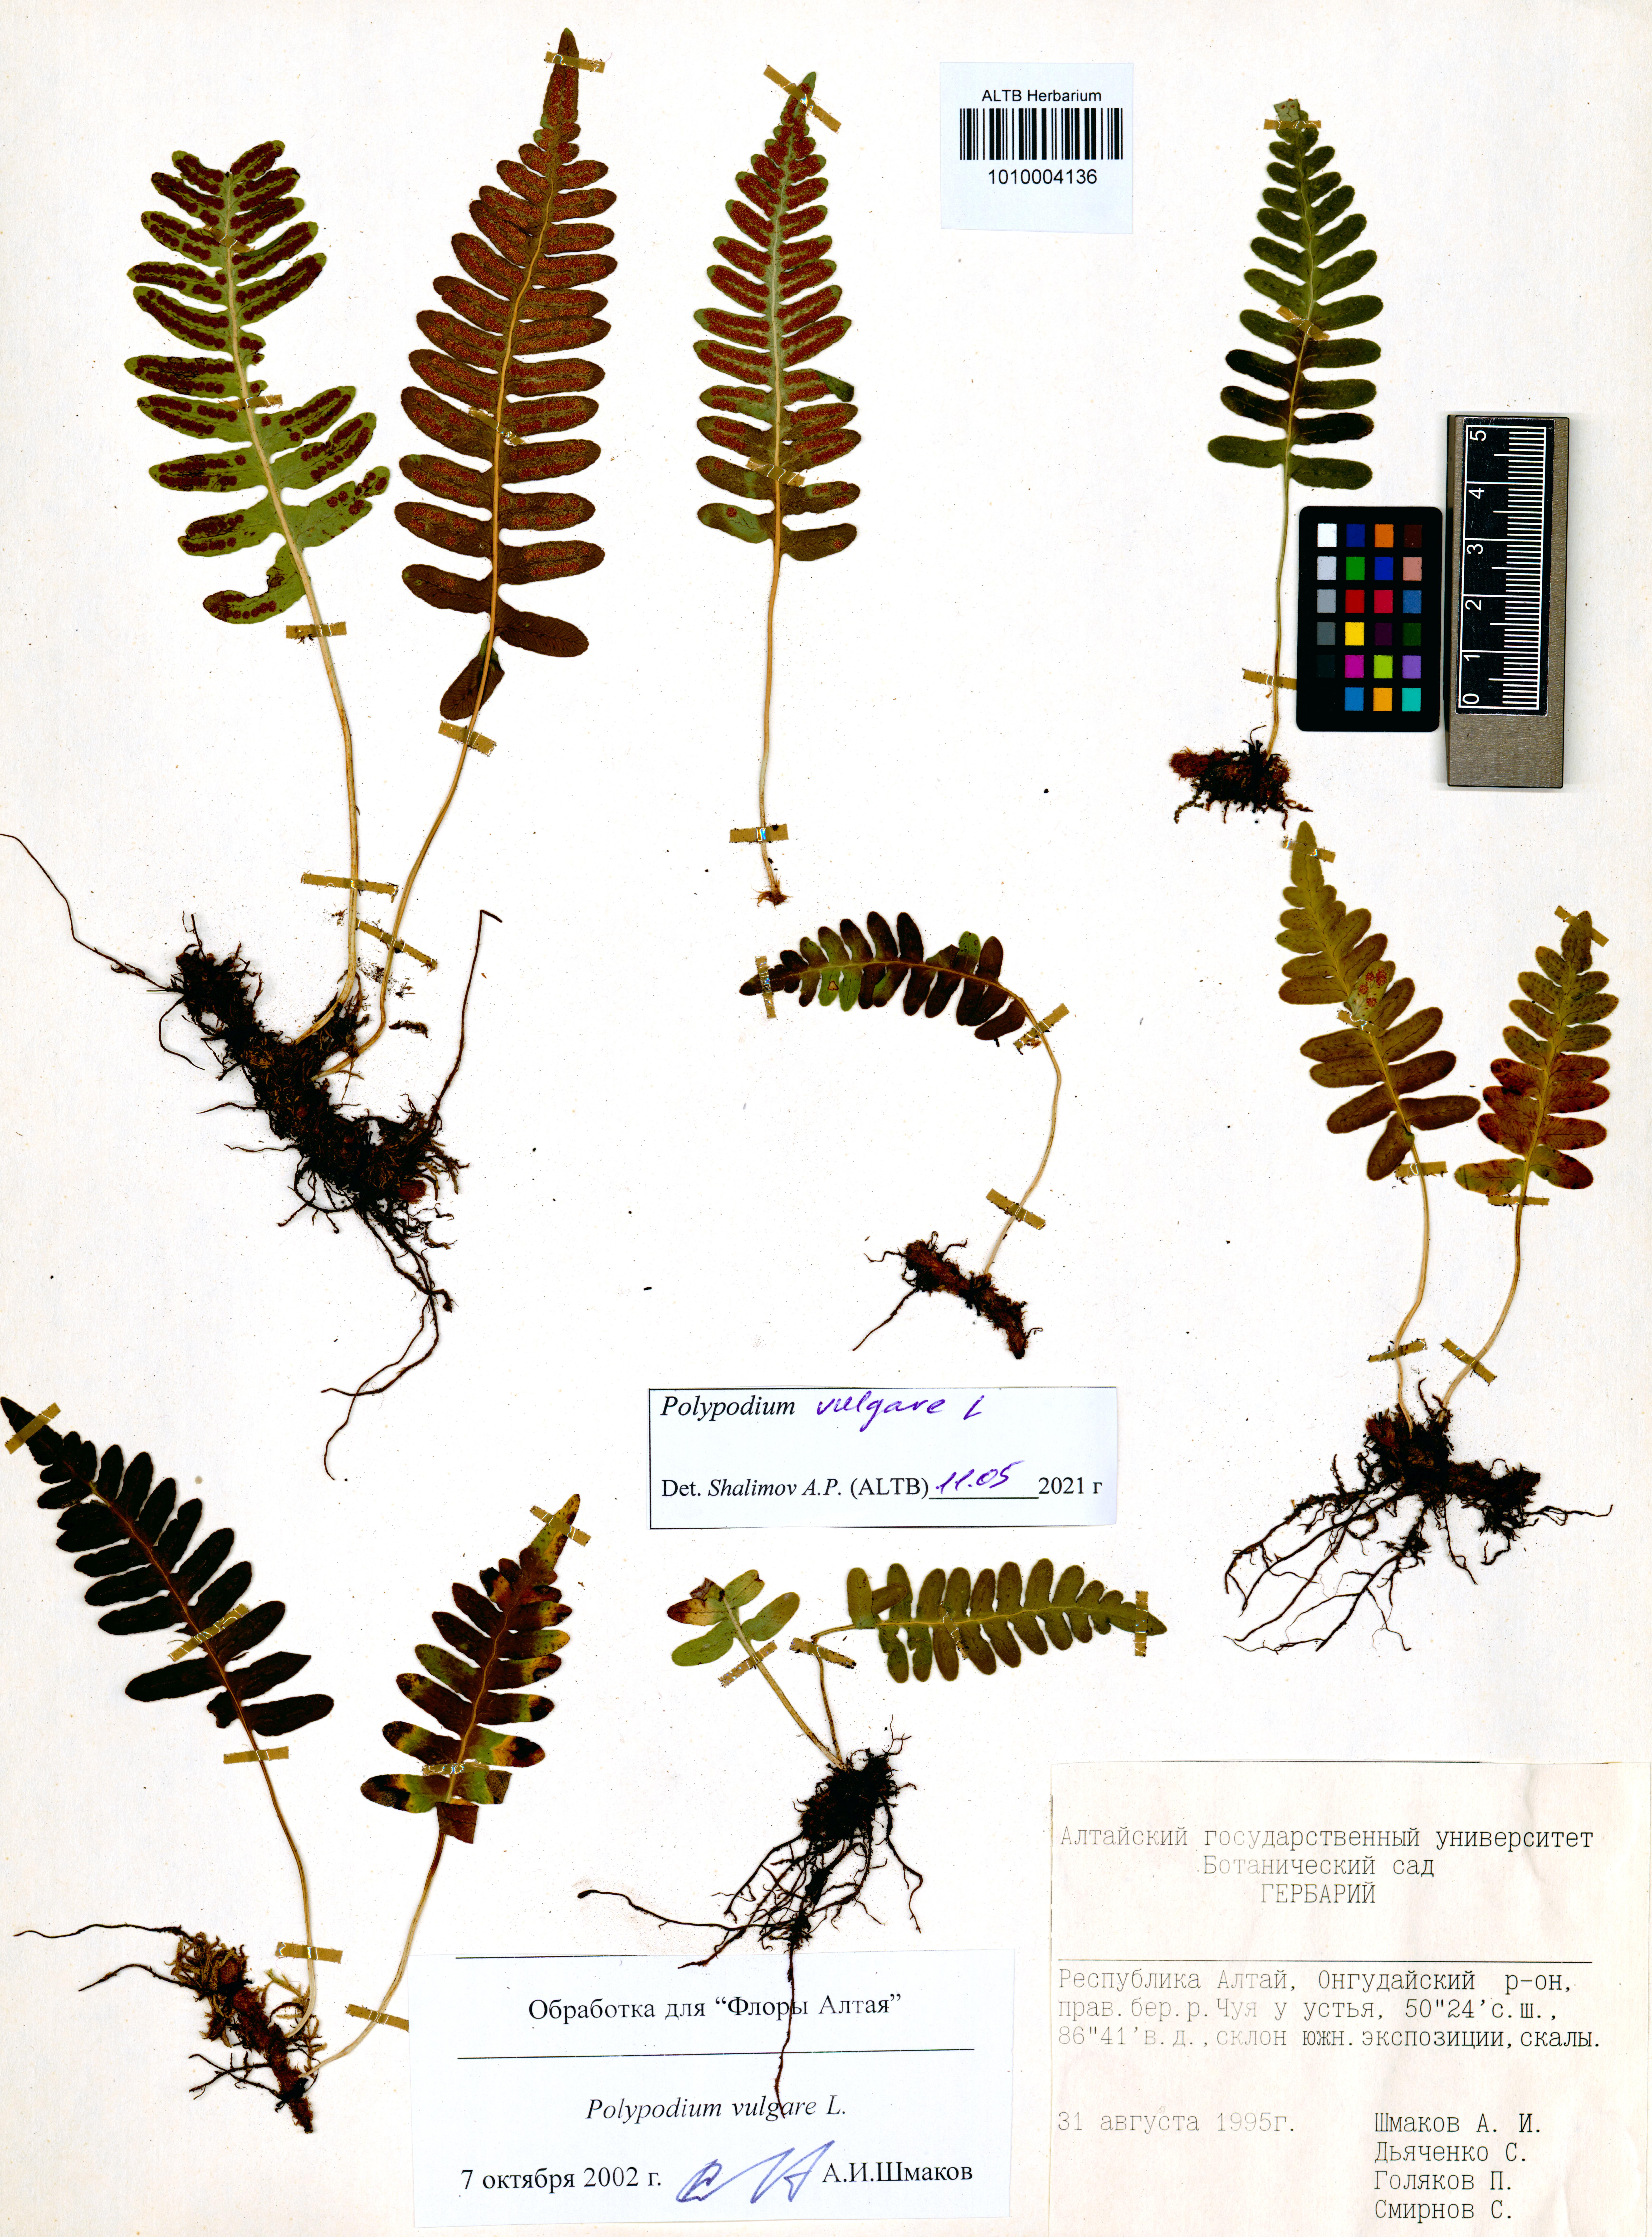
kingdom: Plantae
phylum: Tracheophyta
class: Polypodiopsida
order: Polypodiales
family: Polypodiaceae
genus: Polypodium
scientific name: Polypodium vulgare
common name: Common polypody
